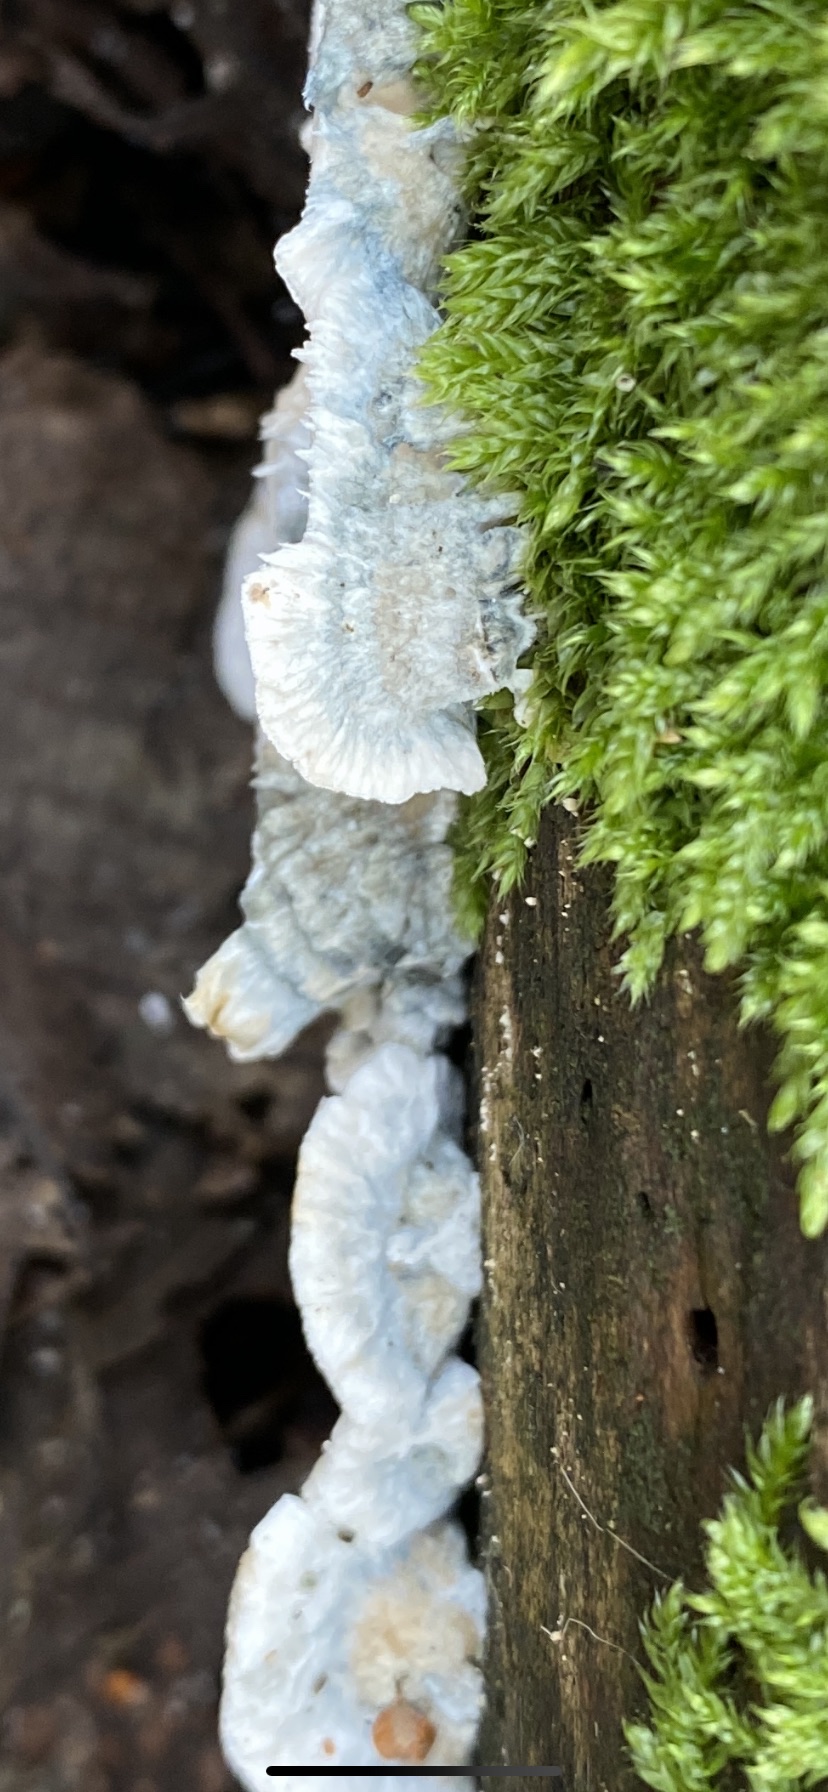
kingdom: Fungi
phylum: Basidiomycota
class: Agaricomycetes
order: Polyporales
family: Polyporaceae
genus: Cyanosporus
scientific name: Cyanosporus
